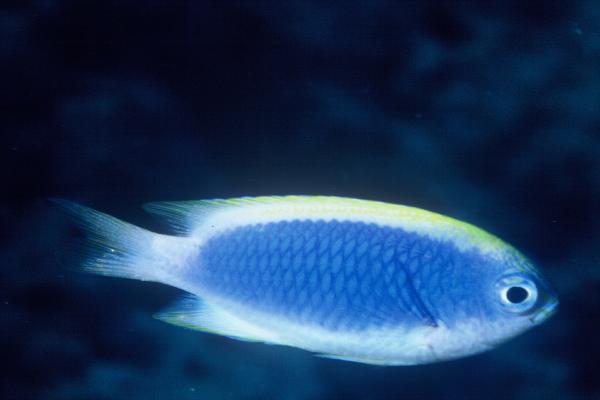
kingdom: Animalia
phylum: Chordata
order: Perciformes
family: Pomacentridae
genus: Chrysiptera
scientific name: Chrysiptera flavipinnis
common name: Yellowfin damsel
